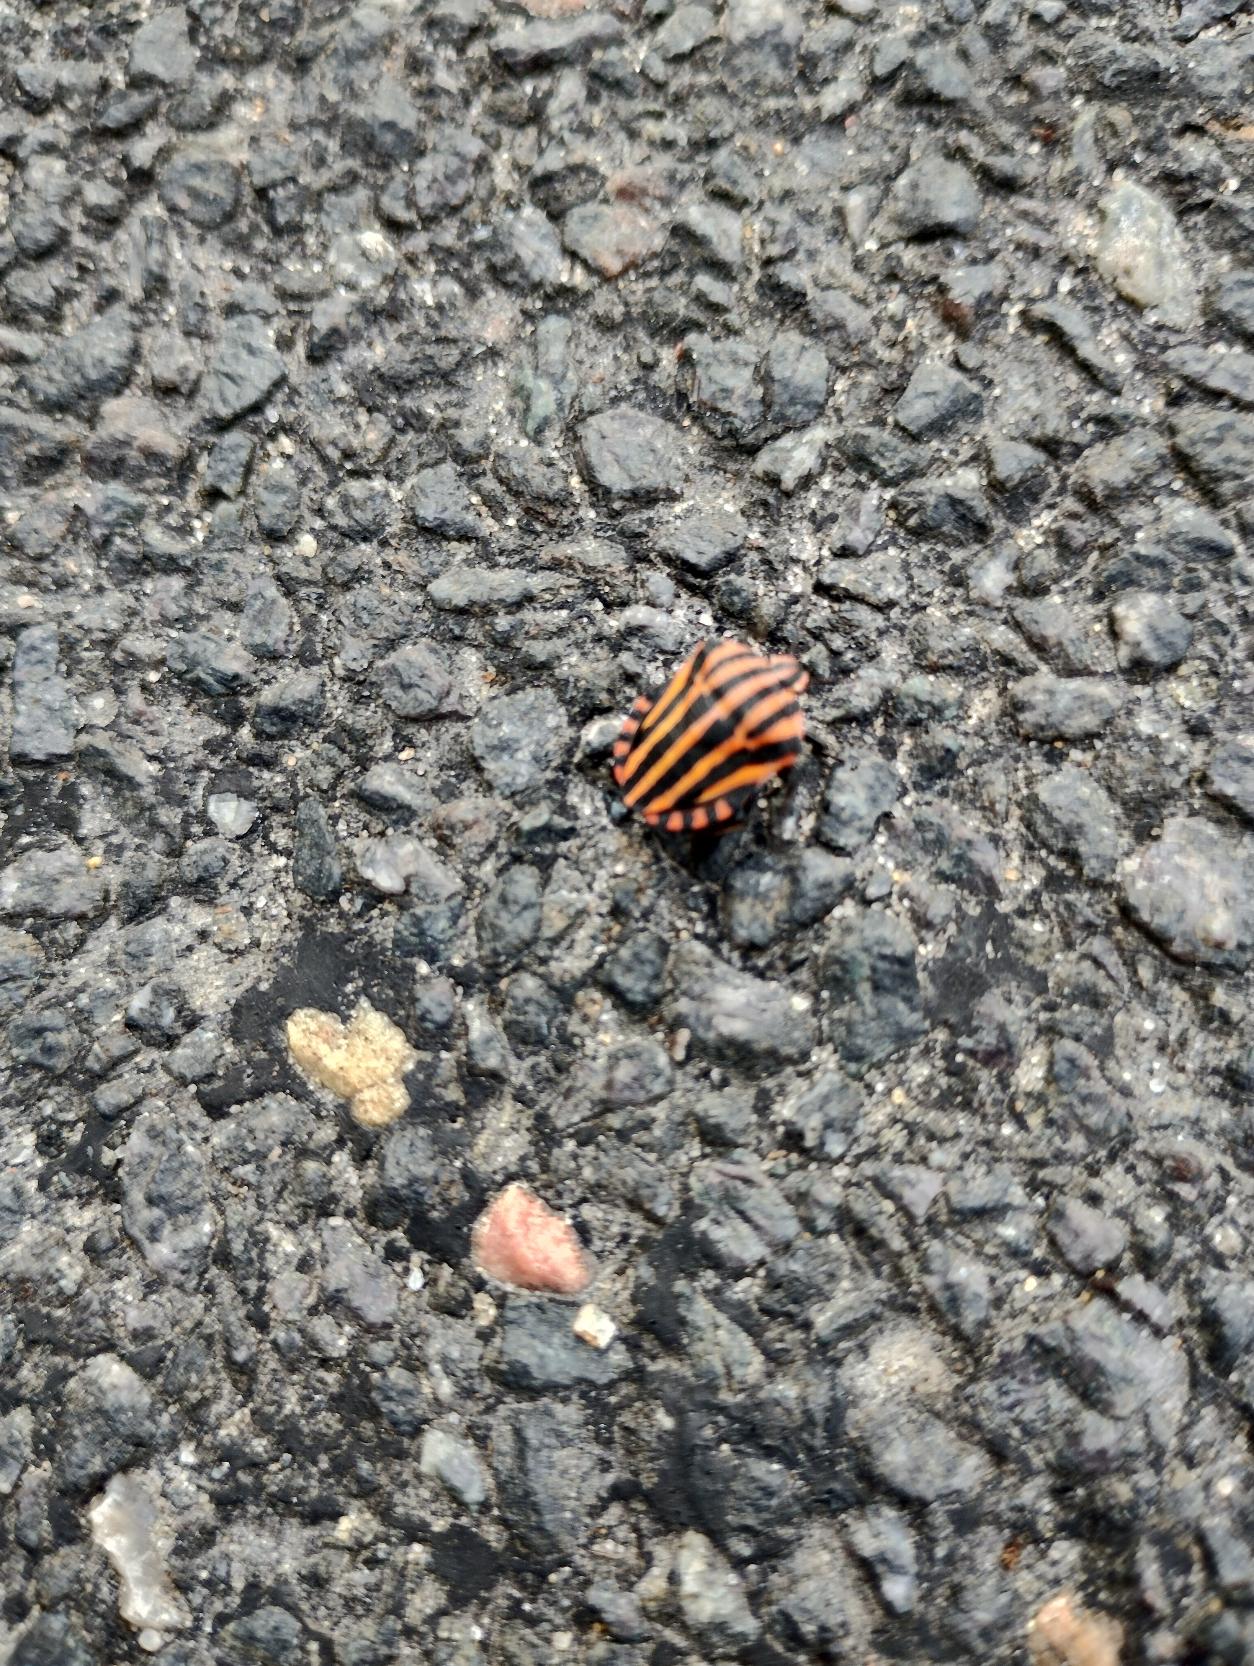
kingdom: Animalia
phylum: Arthropoda
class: Insecta
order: Hemiptera
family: Pentatomidae
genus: Graphosoma
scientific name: Graphosoma italicum
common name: Stribetæge
